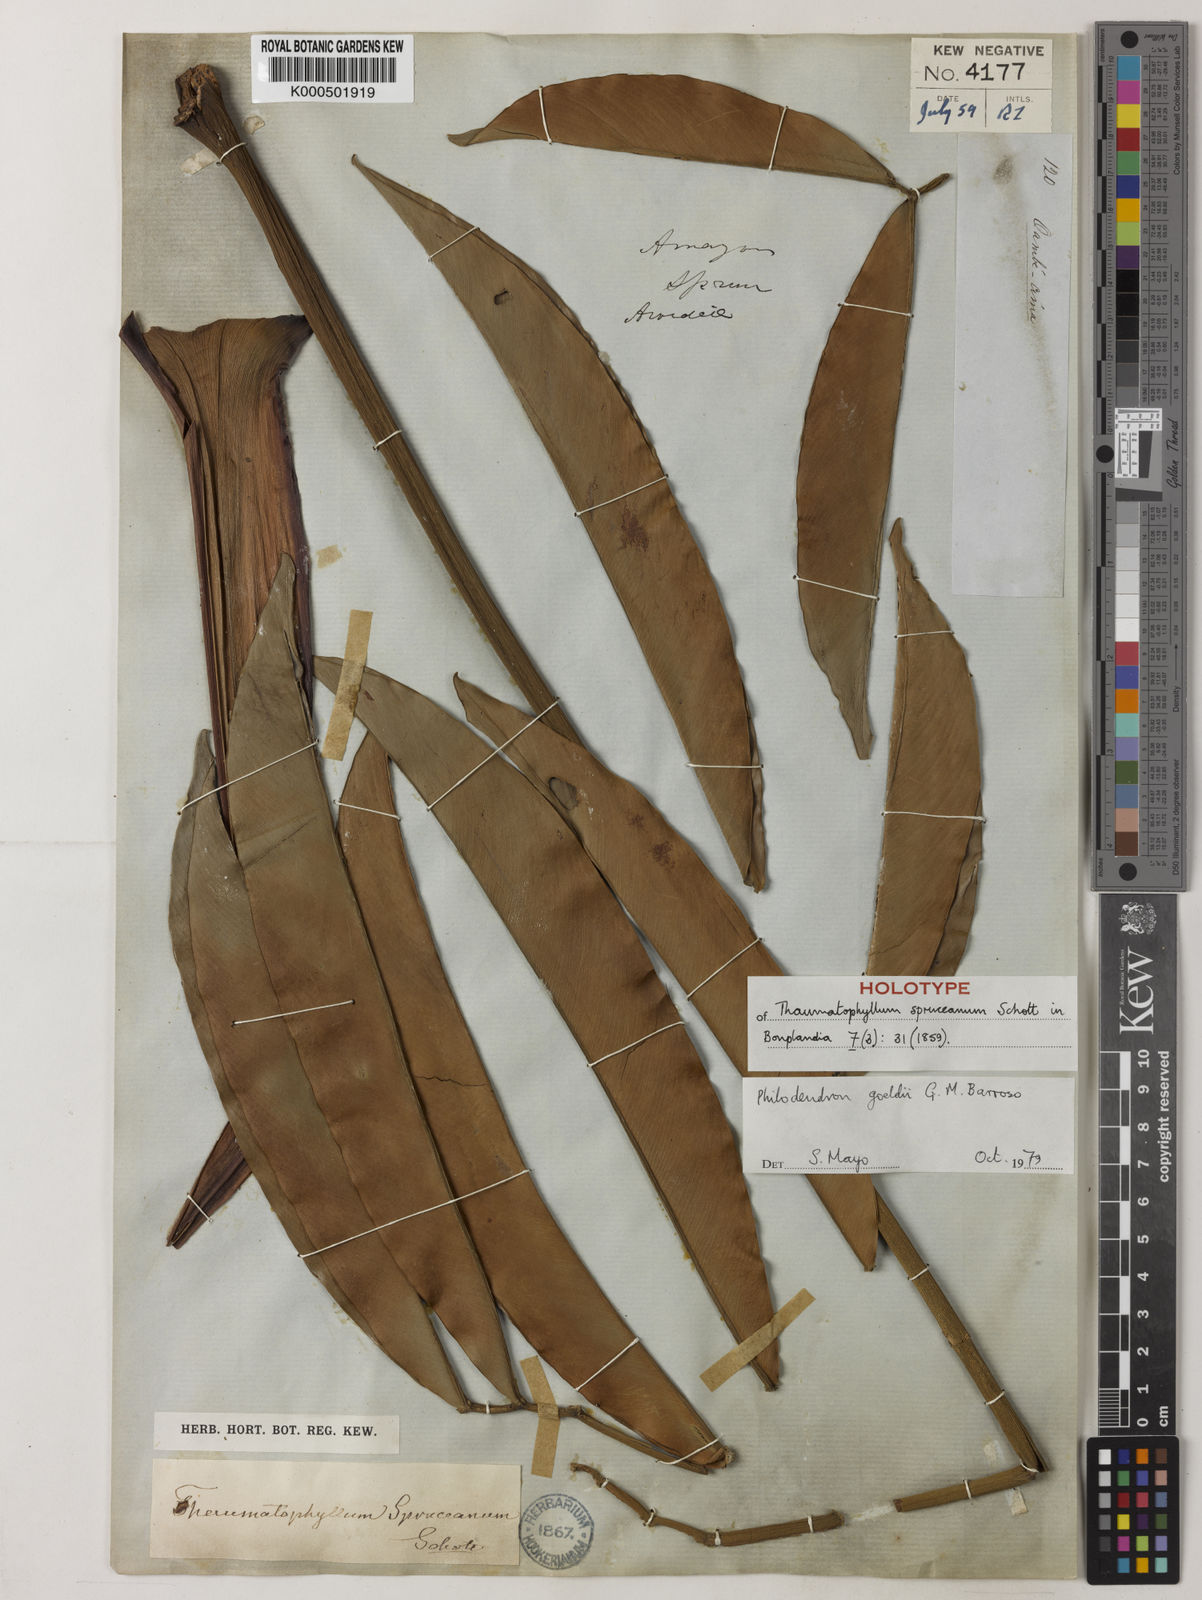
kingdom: Plantae
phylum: Tracheophyta
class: Liliopsida
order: Alismatales
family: Araceae
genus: Thaumatophyllum
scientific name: Thaumatophyllum spruceanum
